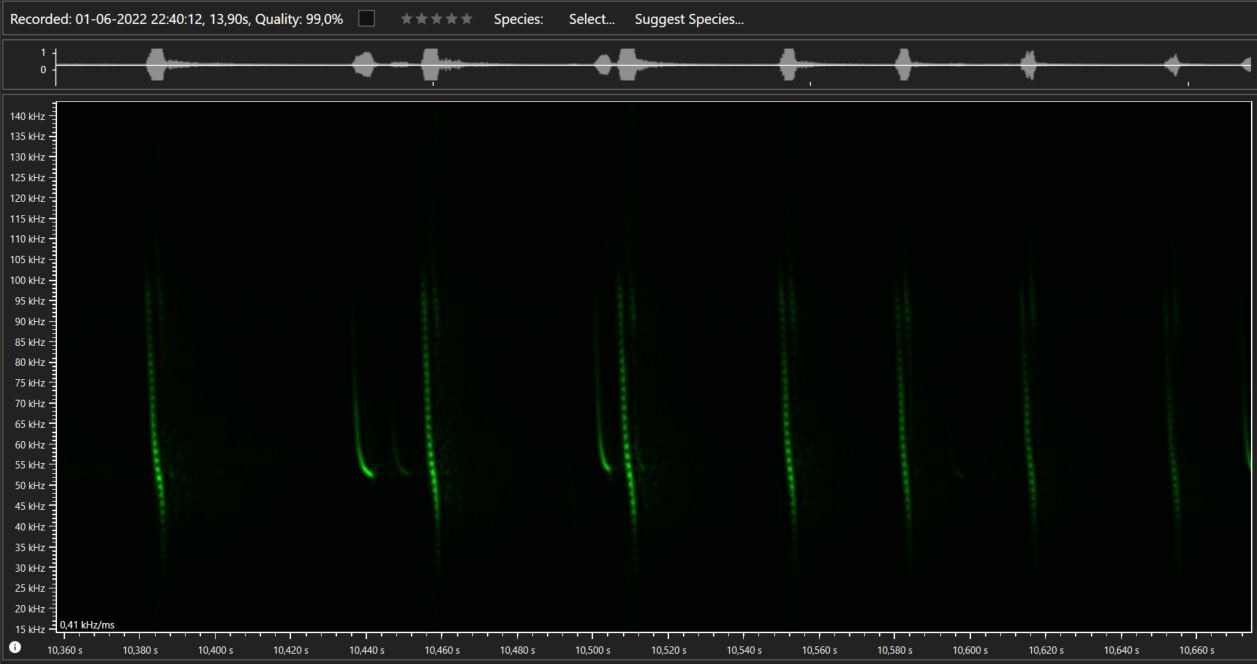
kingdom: Animalia
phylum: Chordata
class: Mammalia
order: Chiroptera
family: Vespertilionidae
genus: Myotis
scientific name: Myotis daubentonii
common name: Vandflagermus
